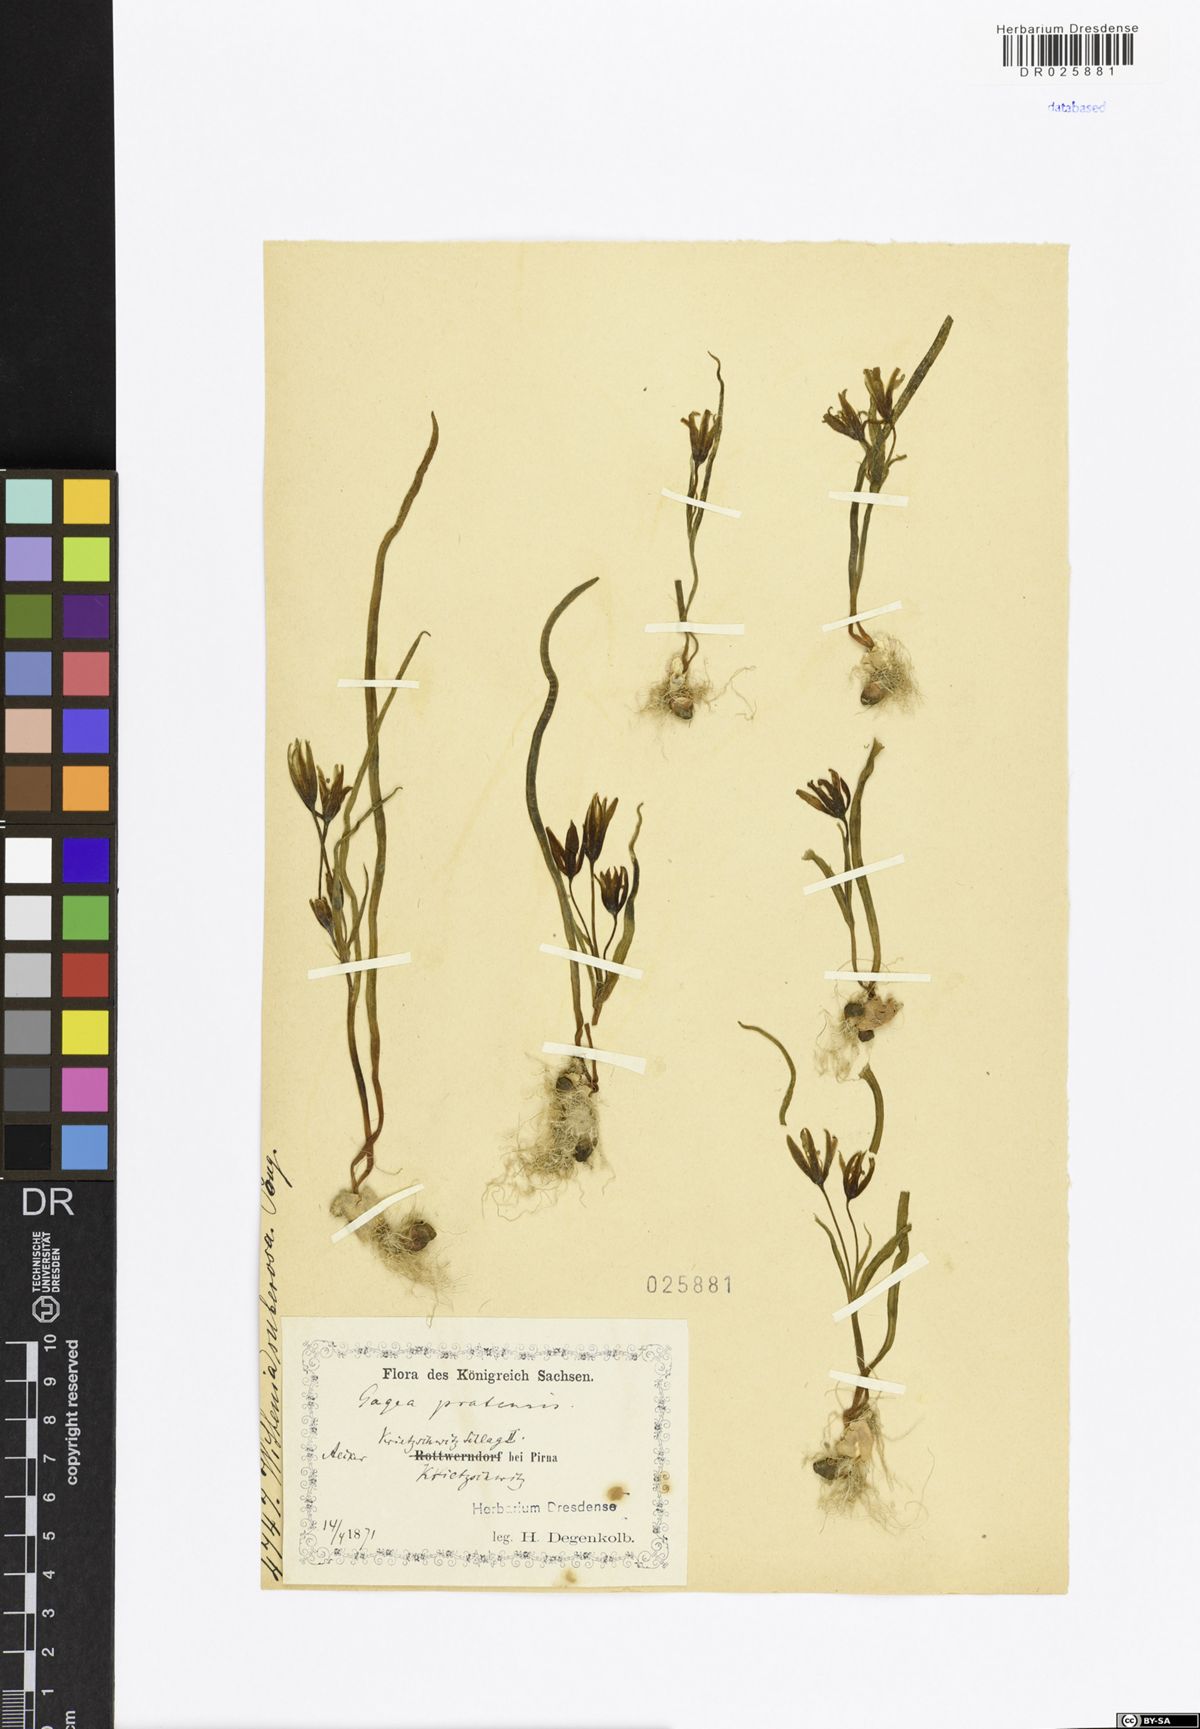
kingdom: Plantae
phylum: Tracheophyta
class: Liliopsida
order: Liliales
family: Liliaceae
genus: Gagea
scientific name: Gagea pratensis
